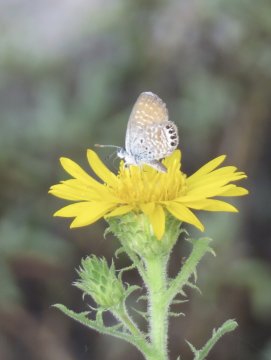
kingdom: Animalia
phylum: Arthropoda
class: Insecta
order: Lepidoptera
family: Lycaenidae
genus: Brephidium
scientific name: Brephidium exilis
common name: Western Pygmy-Blue
